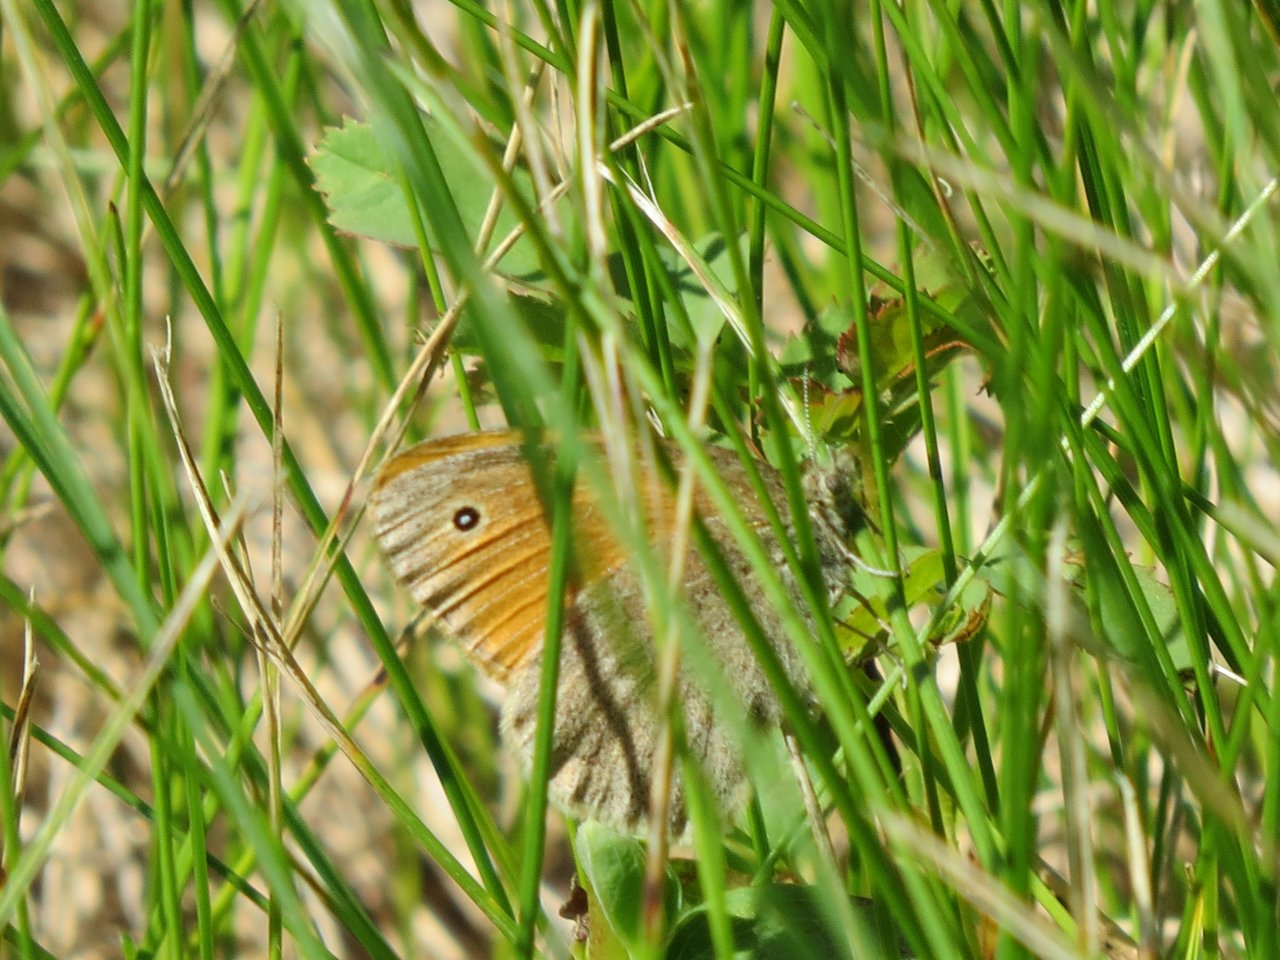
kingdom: Animalia
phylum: Arthropoda
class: Insecta
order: Lepidoptera
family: Nymphalidae
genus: Coenonympha
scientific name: Coenonympha tullia
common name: Large Heath
